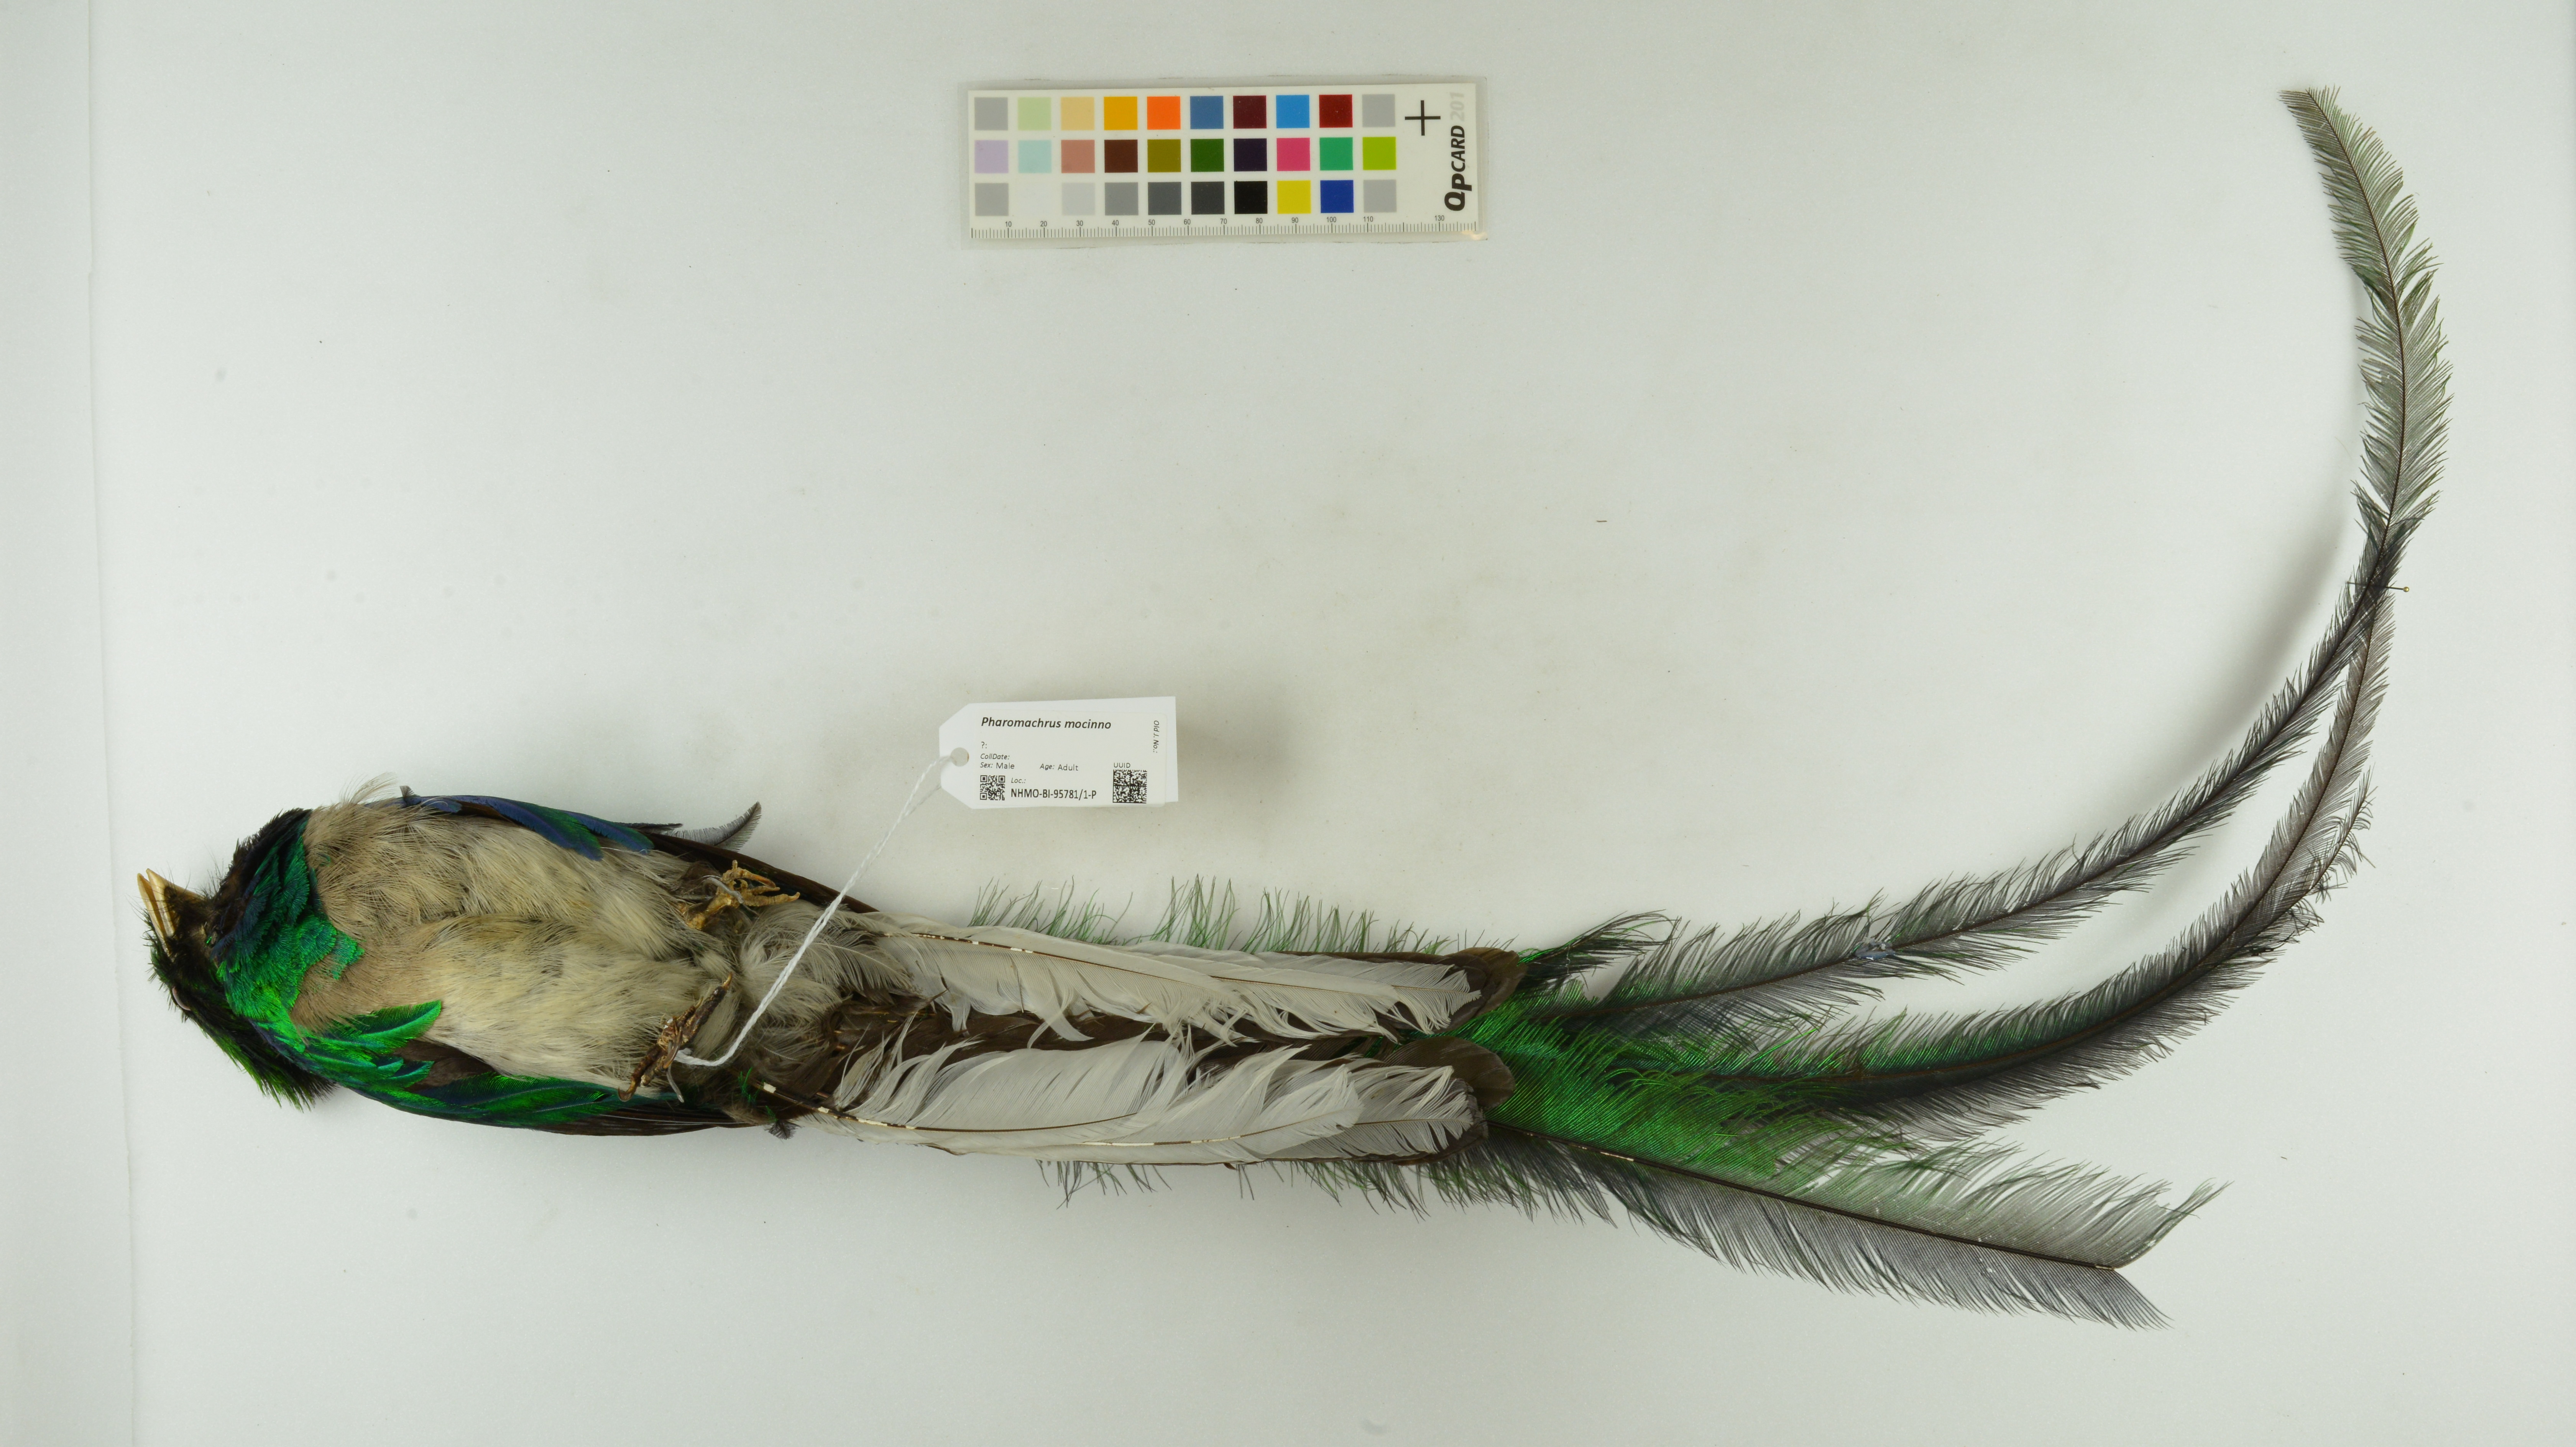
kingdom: Animalia
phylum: Chordata
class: Aves
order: Trogoniformes
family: Trogonidae
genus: Pharomachrus
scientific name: Pharomachrus mocinno
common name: Resplendent quetzal
